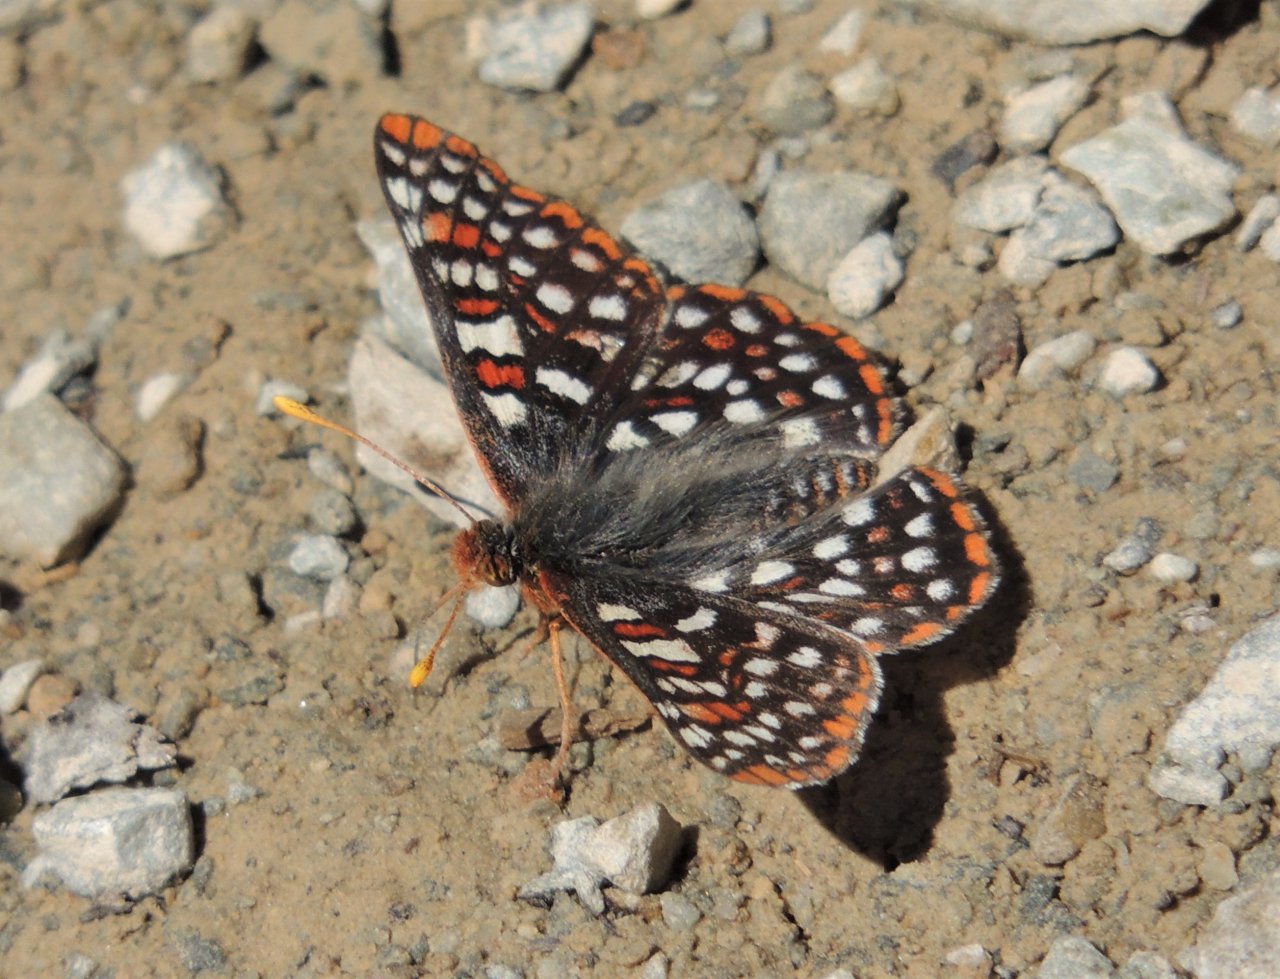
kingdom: Animalia
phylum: Arthropoda
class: Insecta
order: Lepidoptera
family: Nymphalidae
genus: Occidryas
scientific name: Occidryas anicia
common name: Anicia Checkerspot
